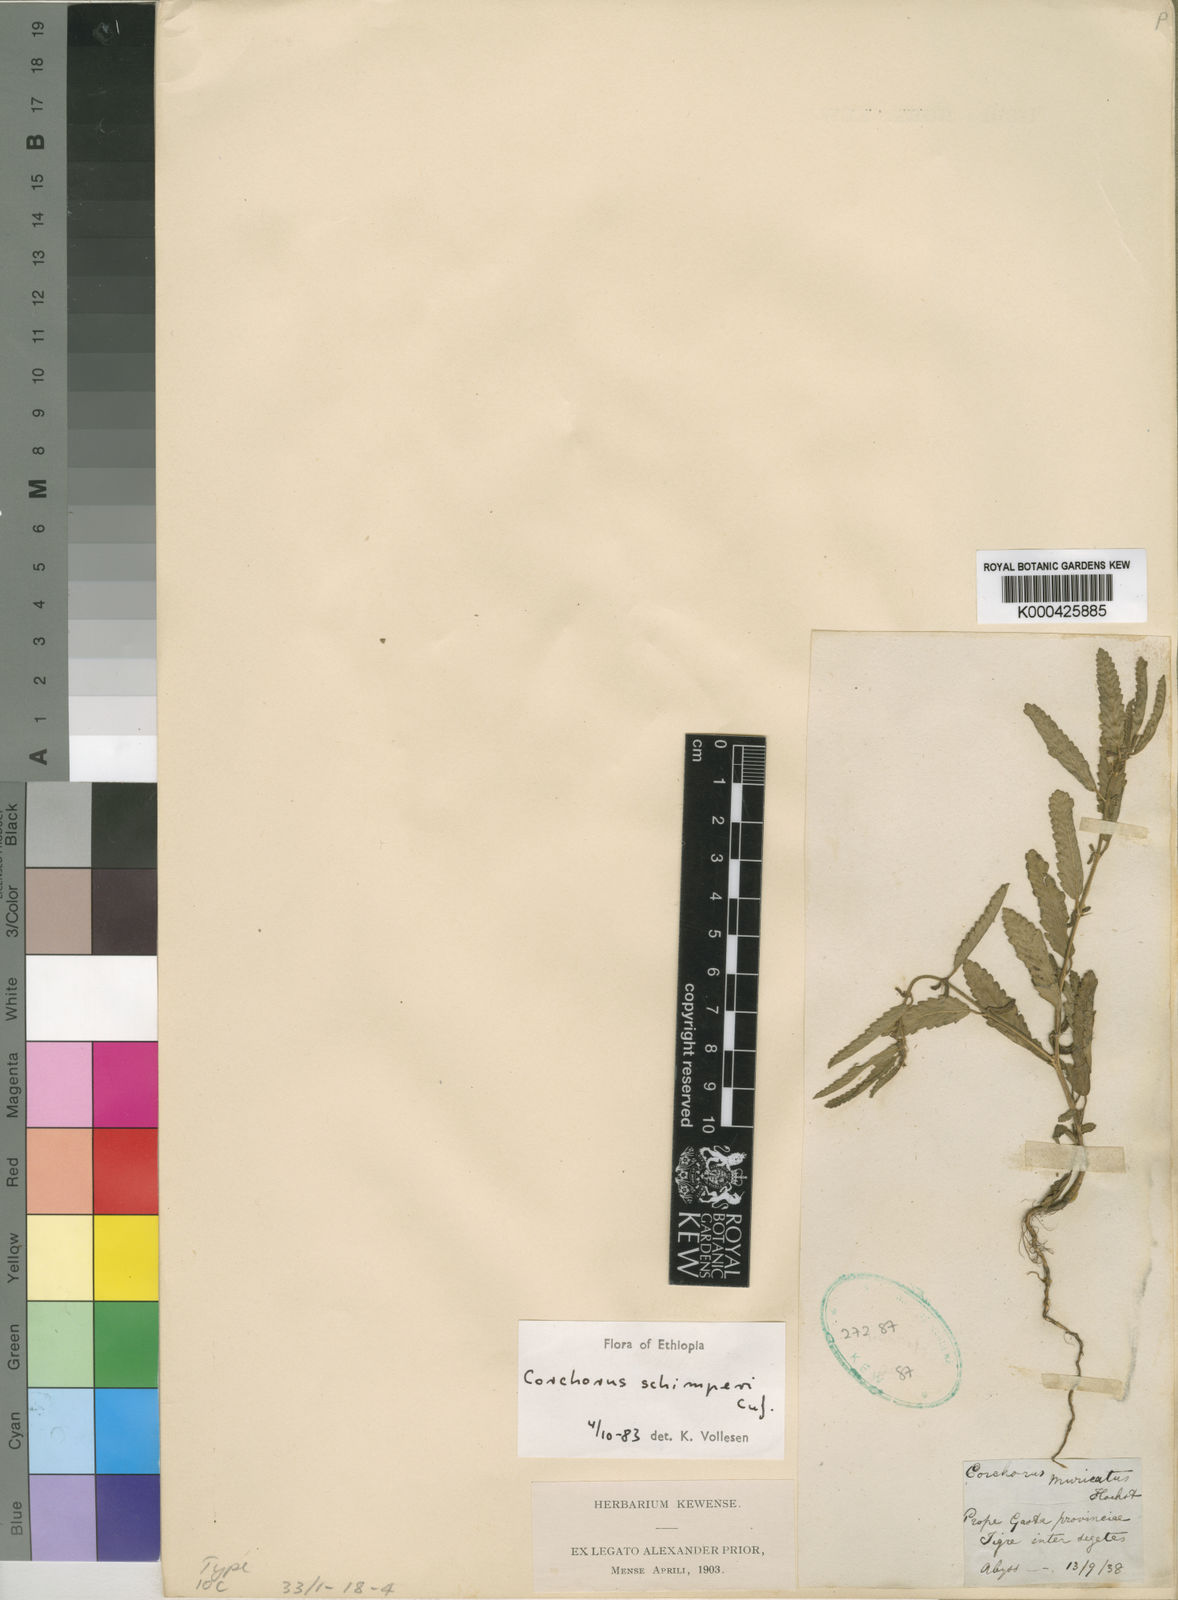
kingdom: Plantae
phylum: Tracheophyta
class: Magnoliopsida
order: Malvales
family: Malvaceae
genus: Corchorus
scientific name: Corchorus
